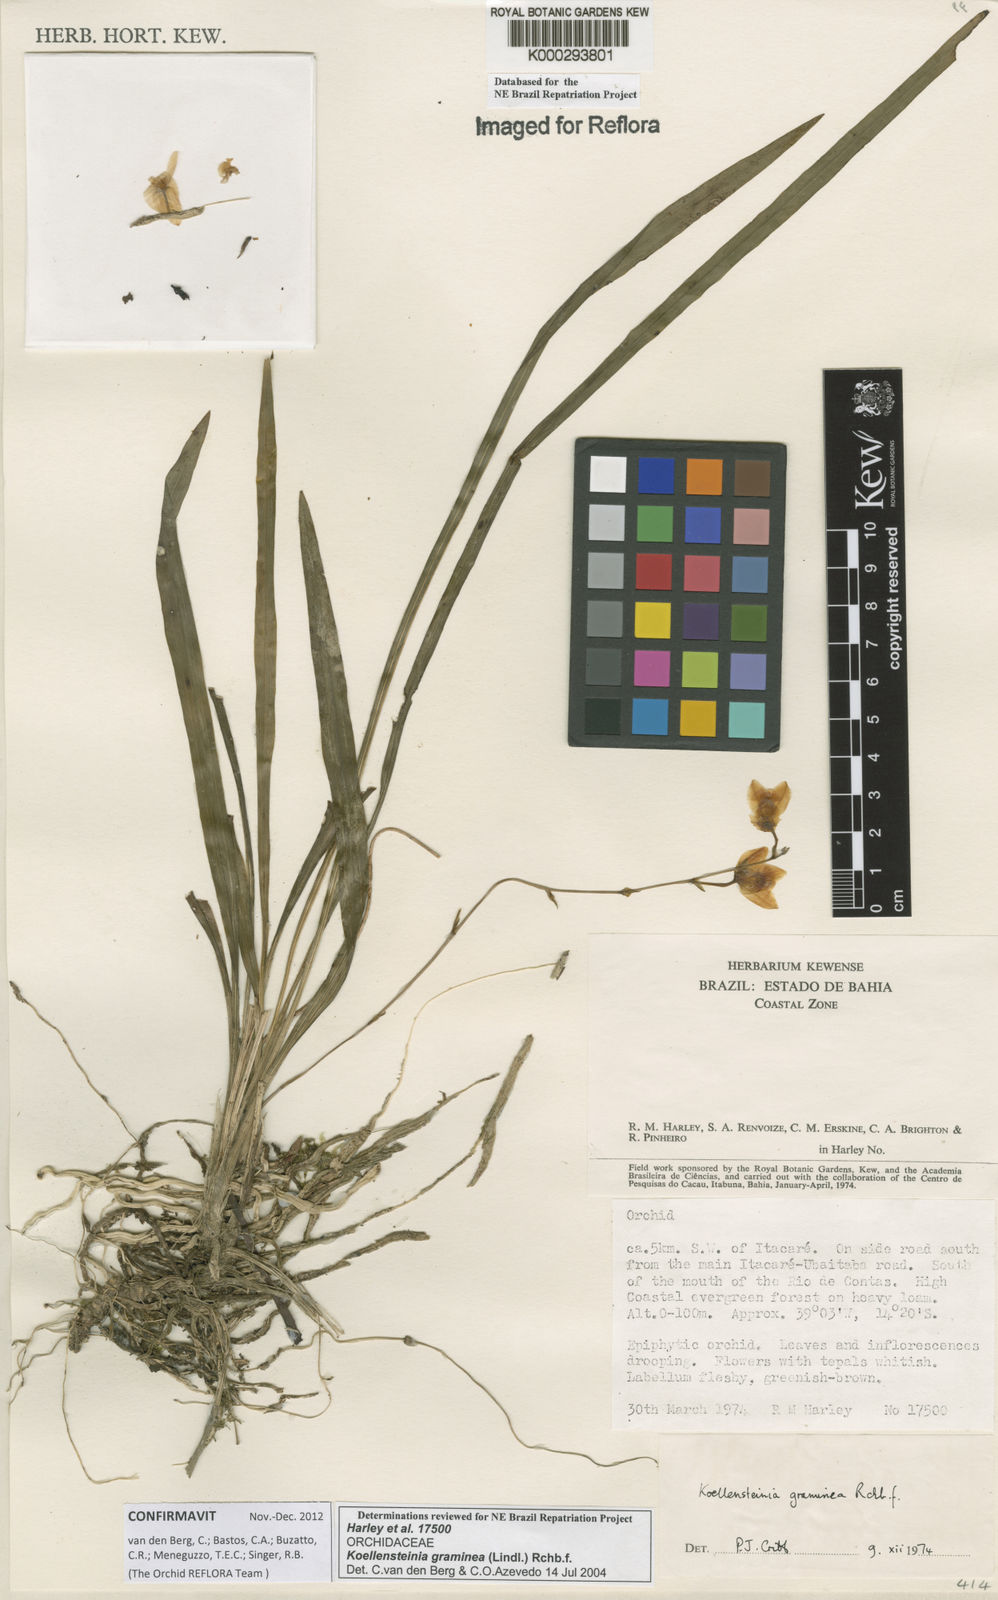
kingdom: Plantae
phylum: Tracheophyta
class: Liliopsida
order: Asparagales
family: Orchidaceae
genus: Koellensteinia
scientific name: Koellensteinia graminea
